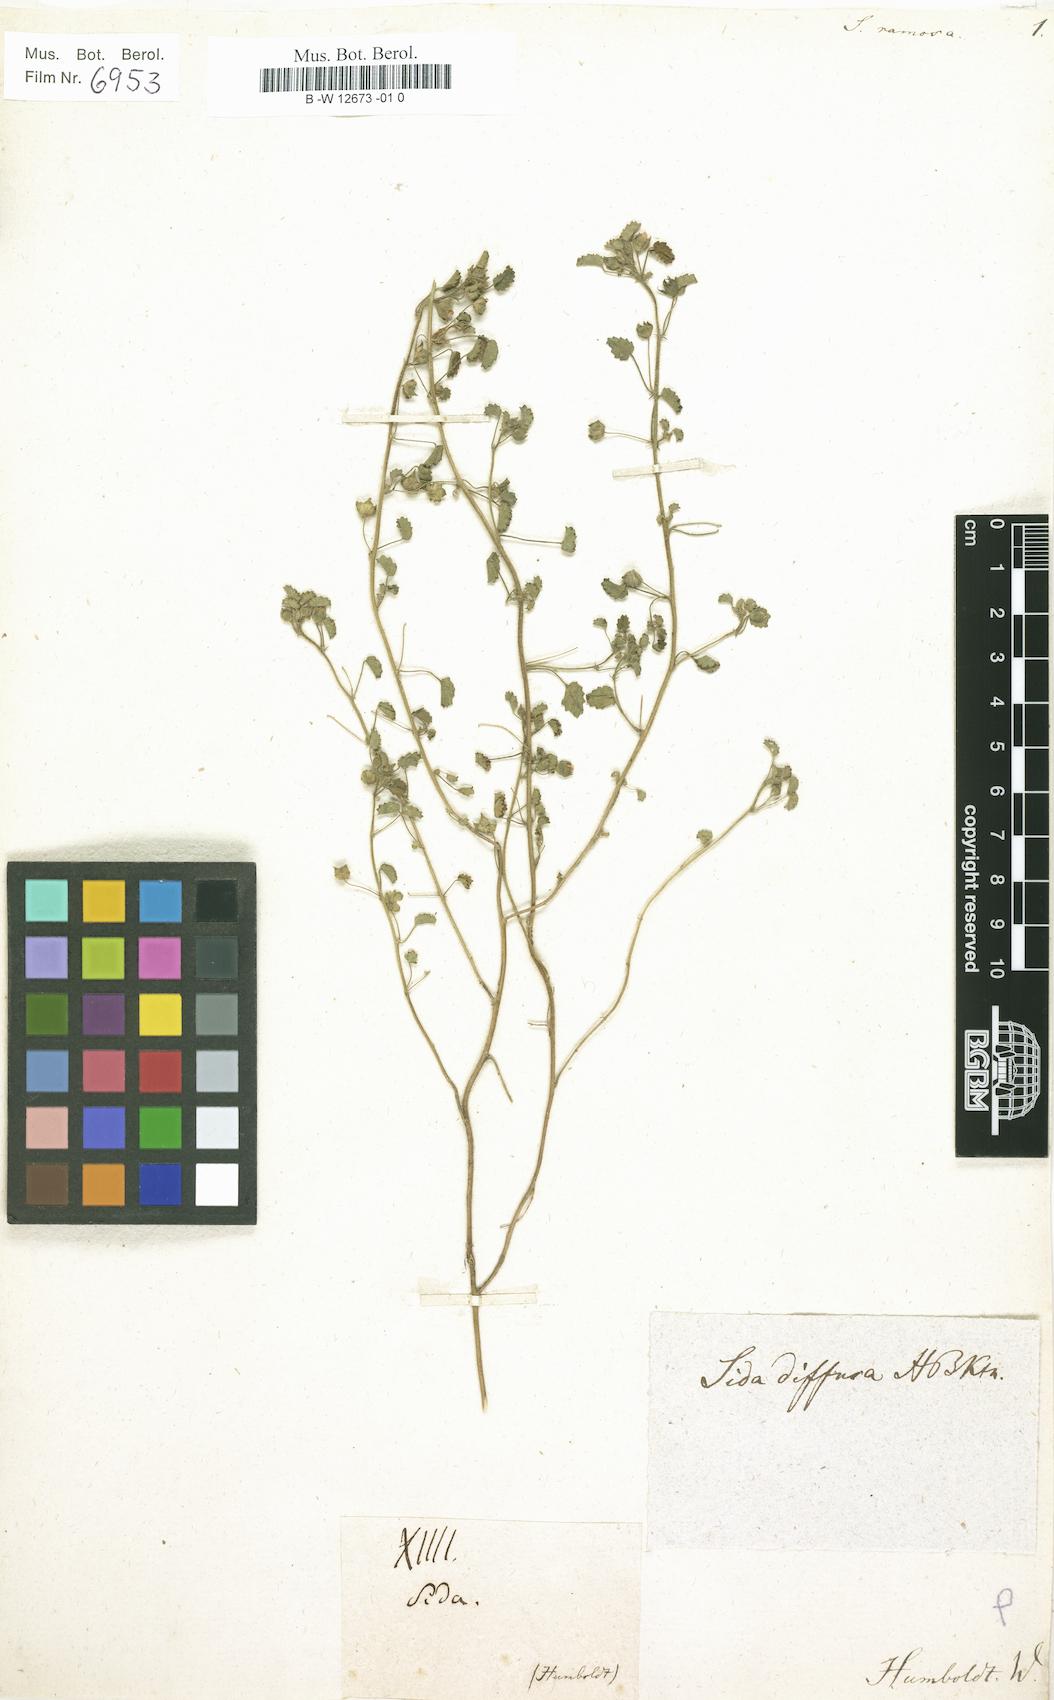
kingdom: Plantae
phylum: Tracheophyta
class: Magnoliopsida
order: Malvales
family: Malvaceae
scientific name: Malvaceae
